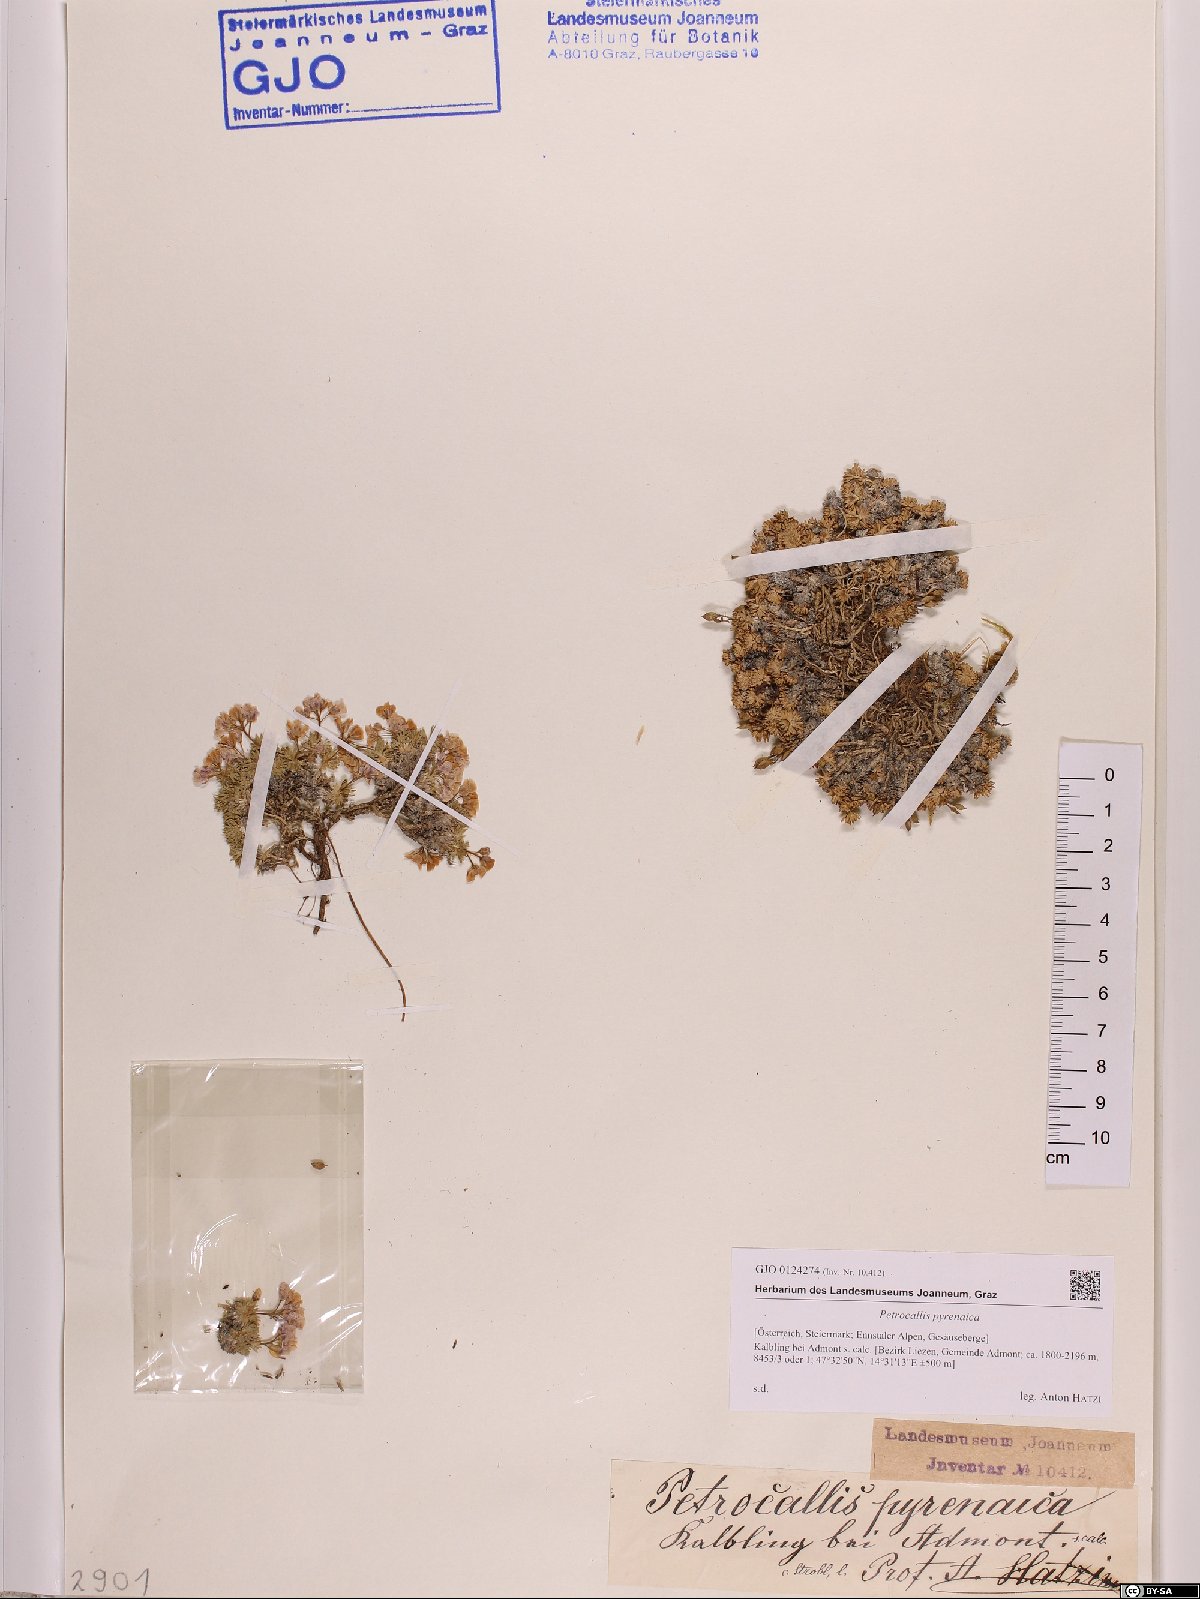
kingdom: Plantae
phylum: Tracheophyta
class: Magnoliopsida
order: Brassicales
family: Brassicaceae
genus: Petrocallis
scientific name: Petrocallis pyrenaica
